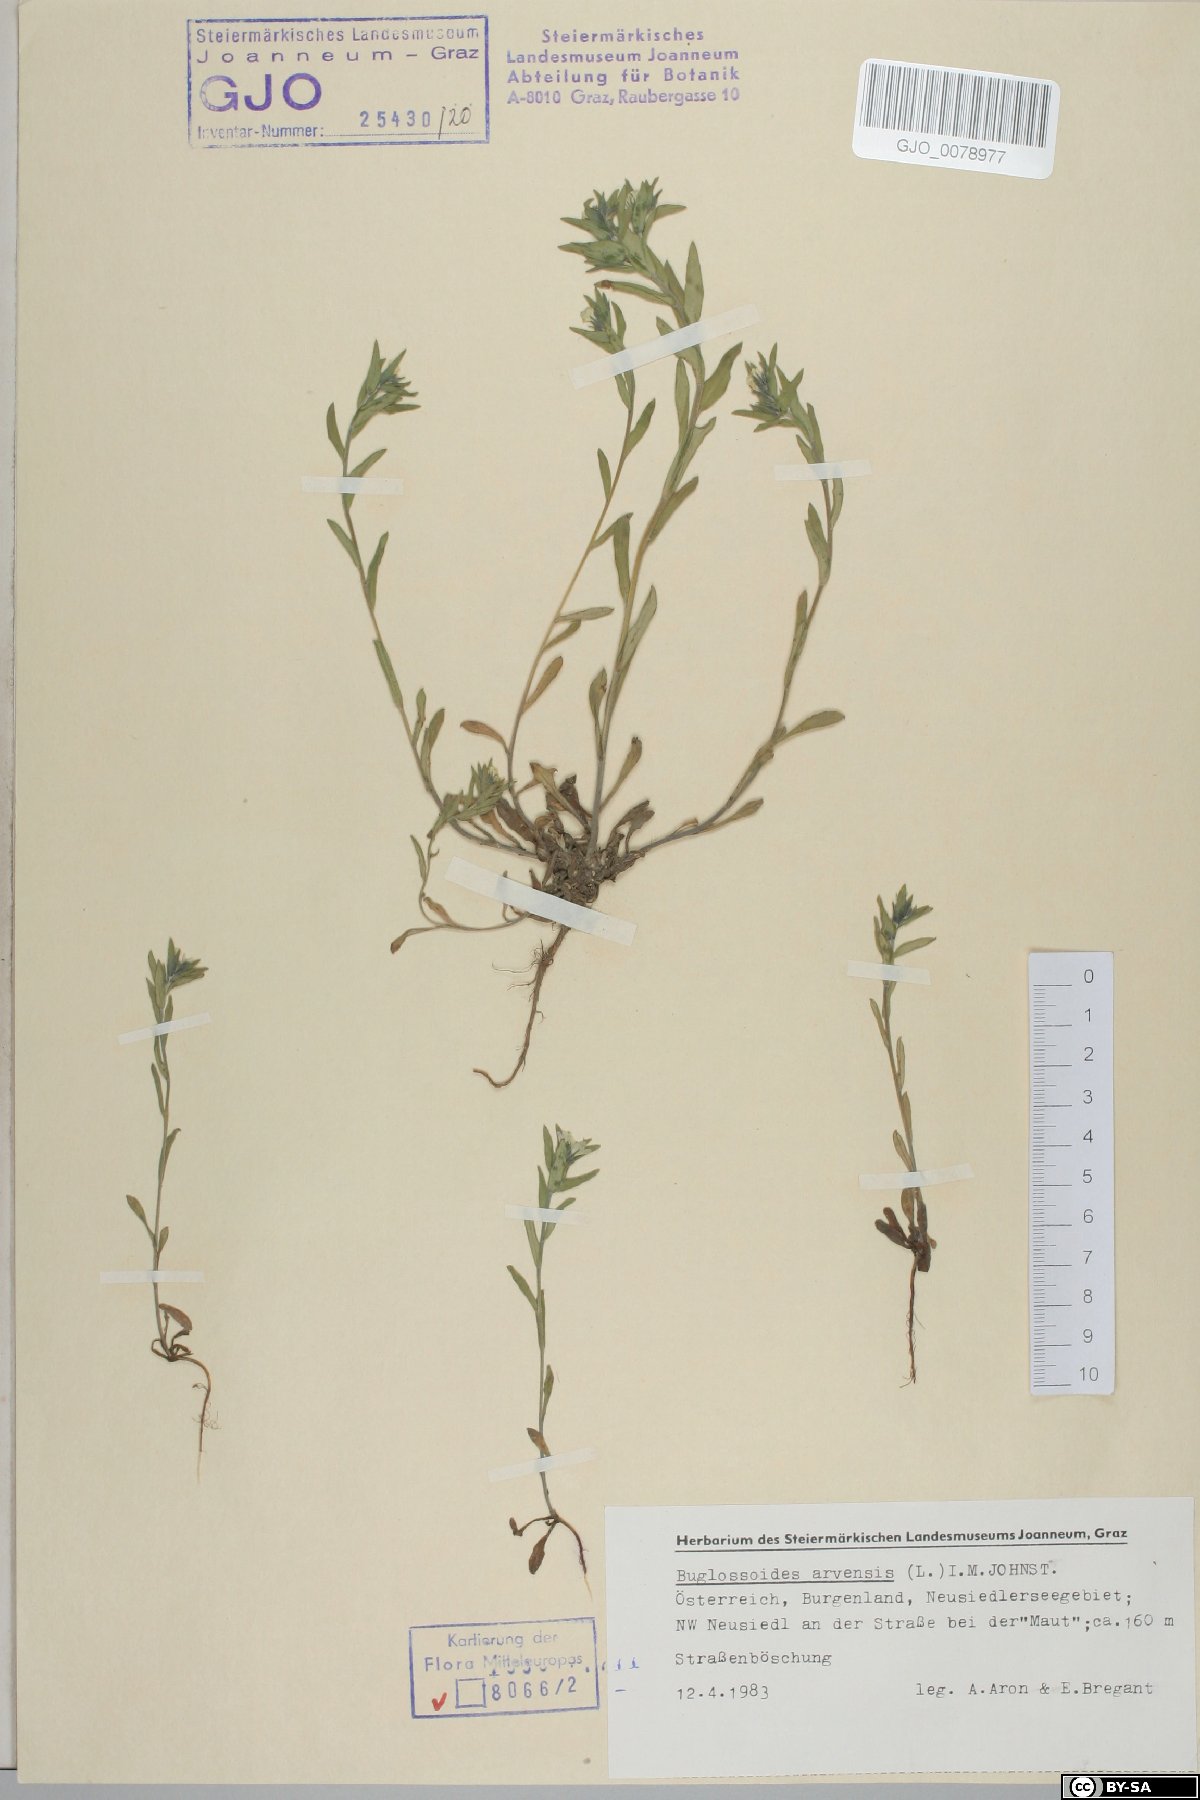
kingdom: Plantae
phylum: Tracheophyta
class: Magnoliopsida
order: Boraginales
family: Boraginaceae
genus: Buglossoides
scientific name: Buglossoides arvensis
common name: Corn gromwell
